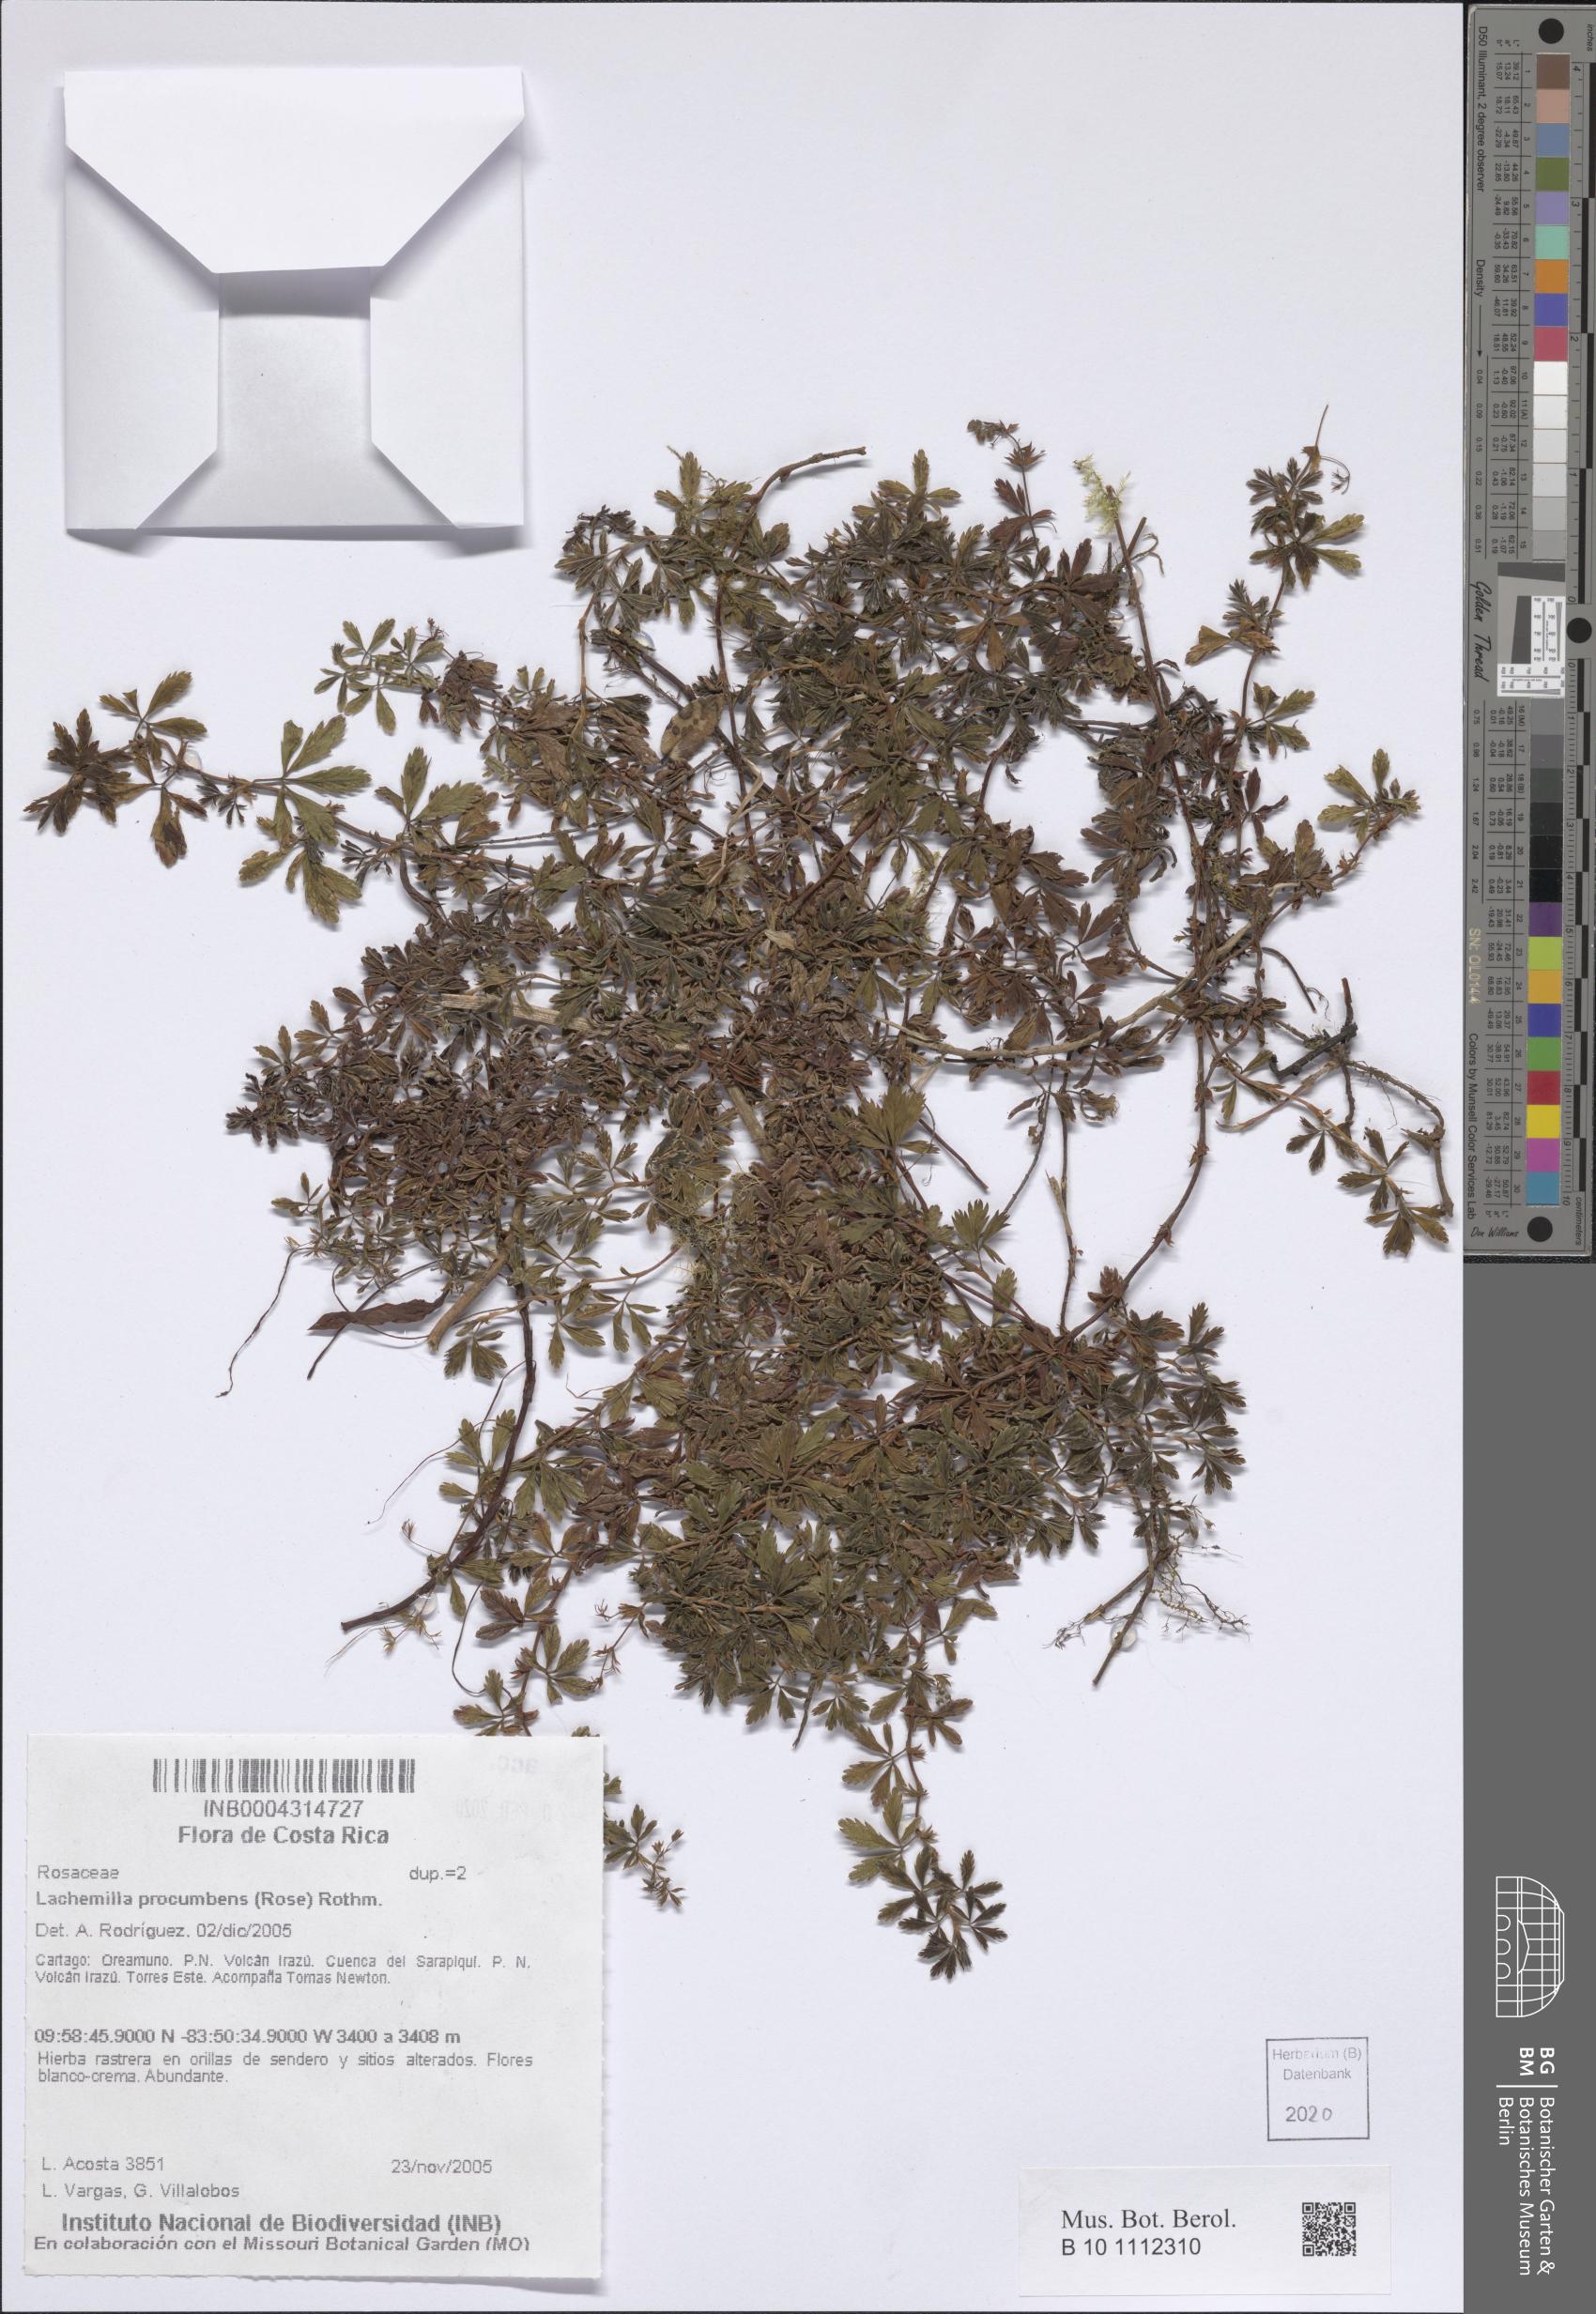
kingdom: Plantae
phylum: Tracheophyta
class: Magnoliopsida
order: Rosales
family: Rosaceae
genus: Lachemilla
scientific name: Lachemilla procumbens
